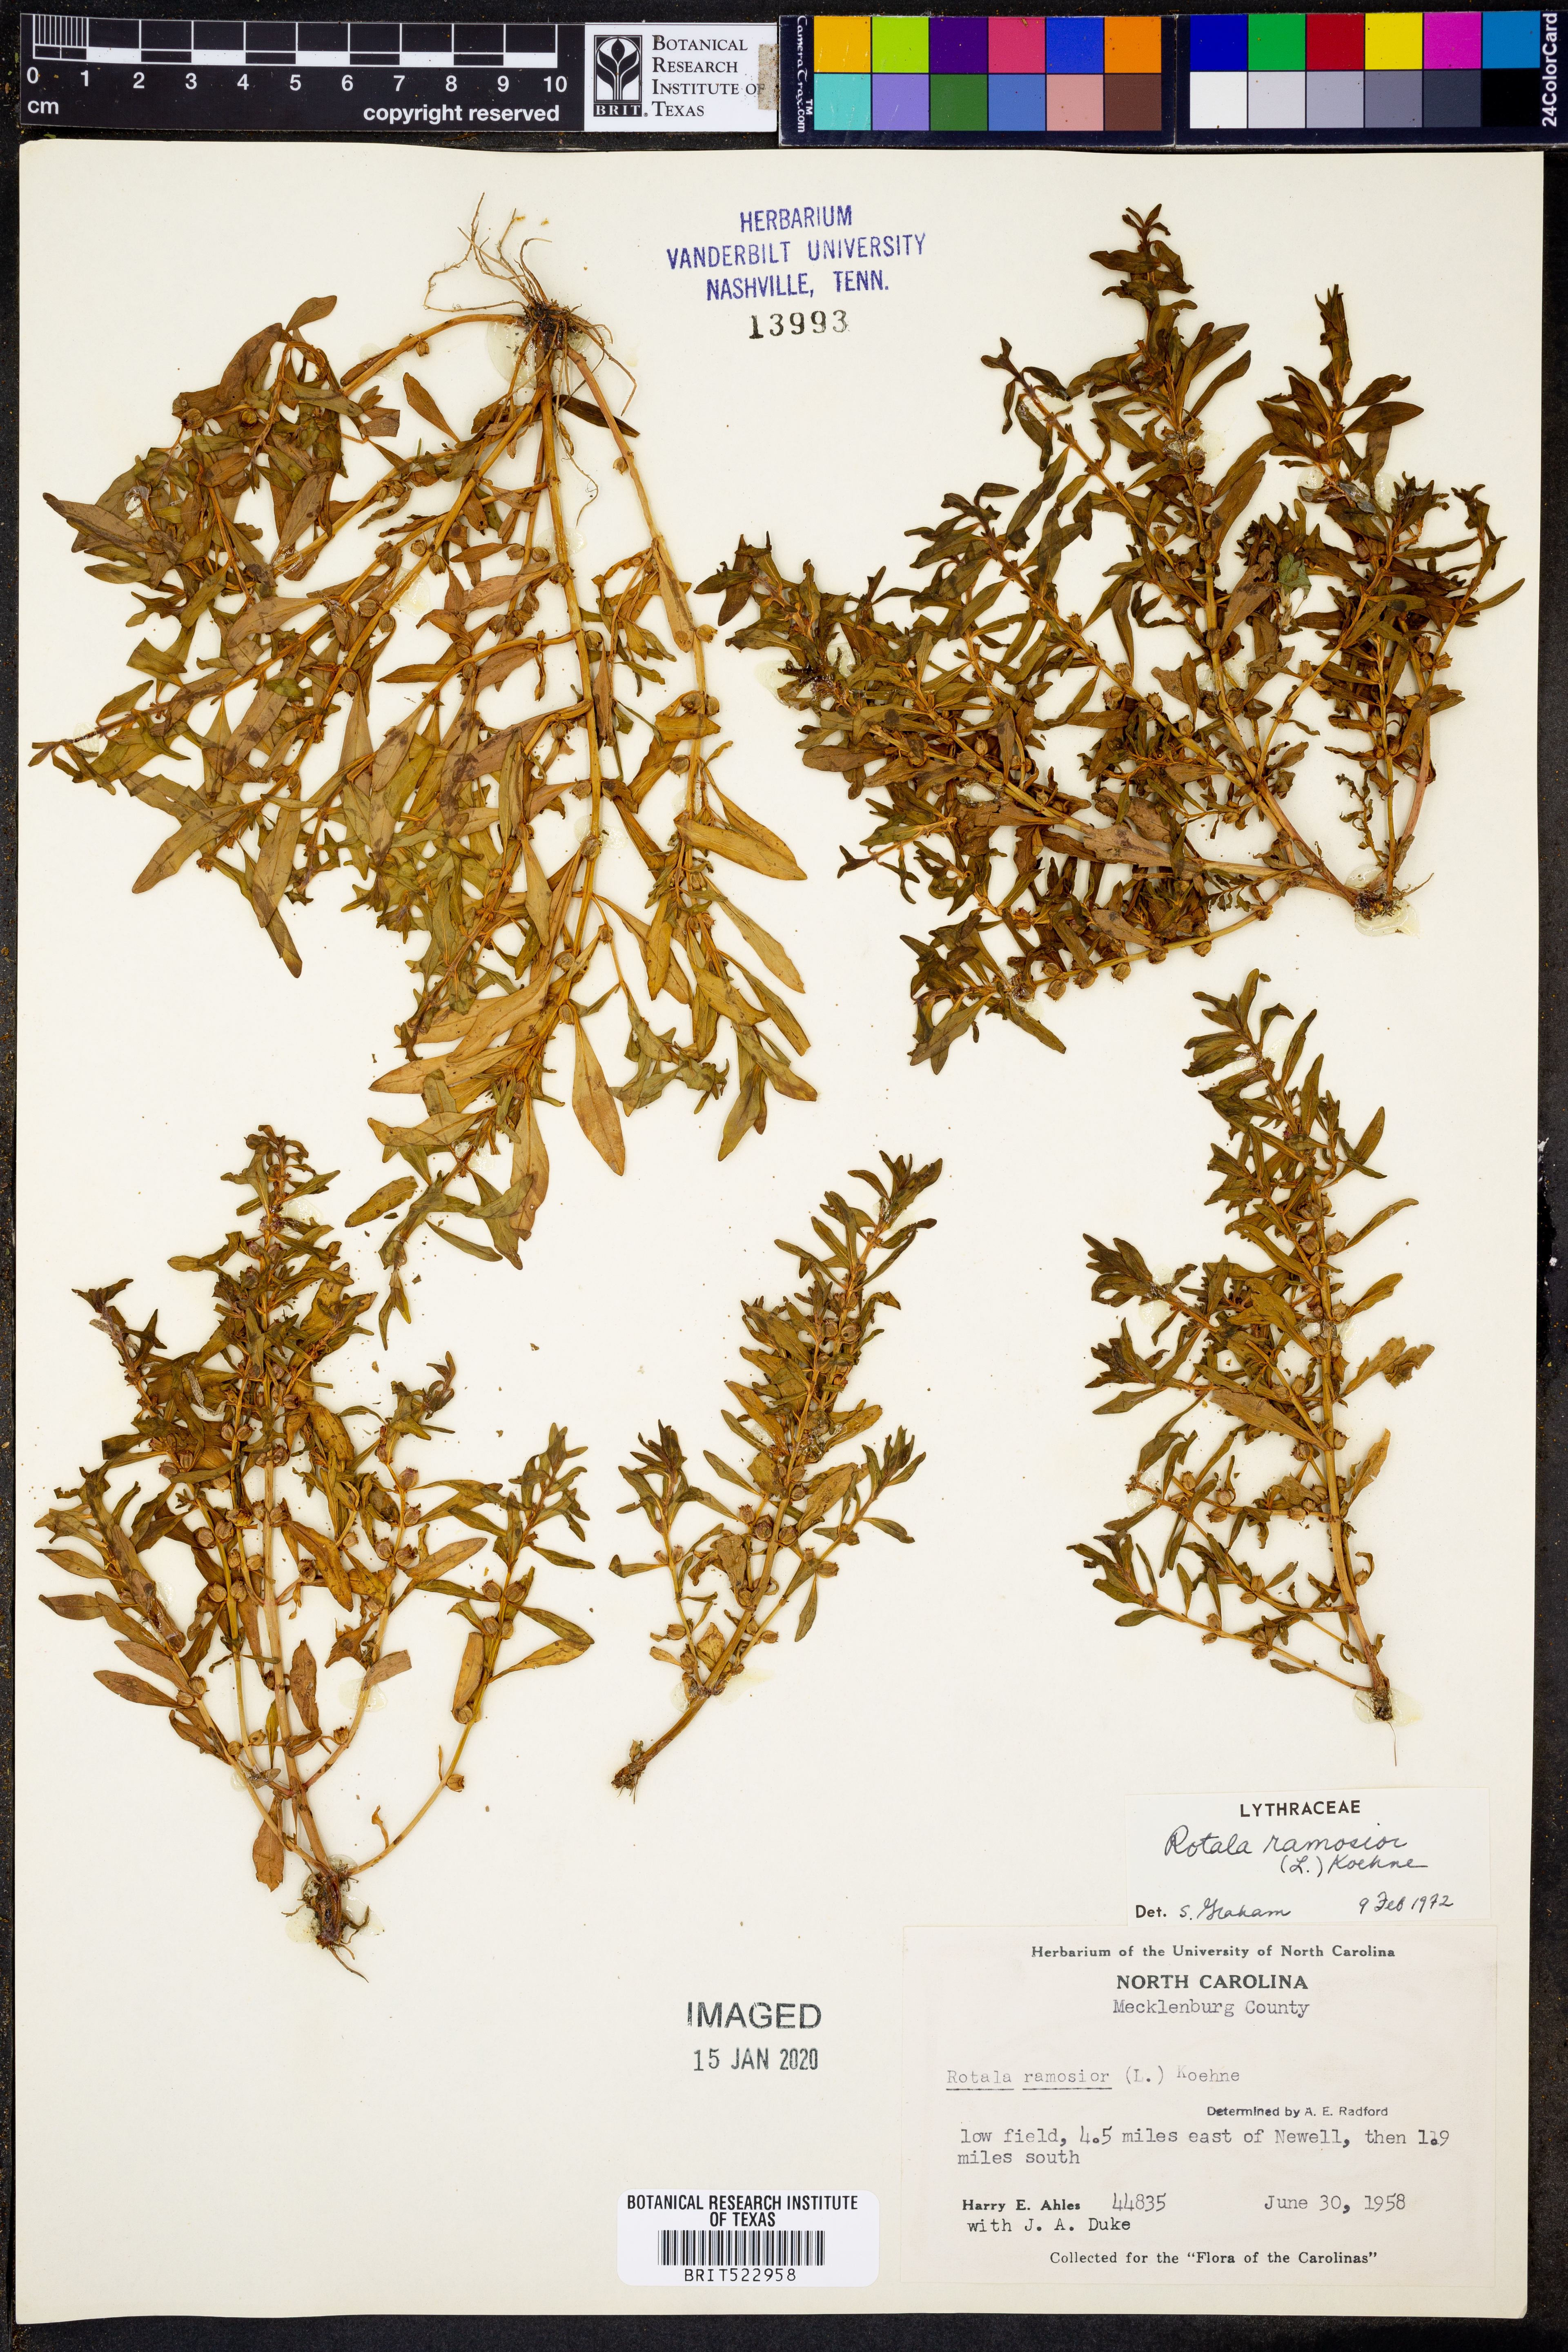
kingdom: Plantae
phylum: Tracheophyta
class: Magnoliopsida
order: Myrtales
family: Lythraceae
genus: Rotala
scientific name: Rotala ramosior
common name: Lowland rotala
